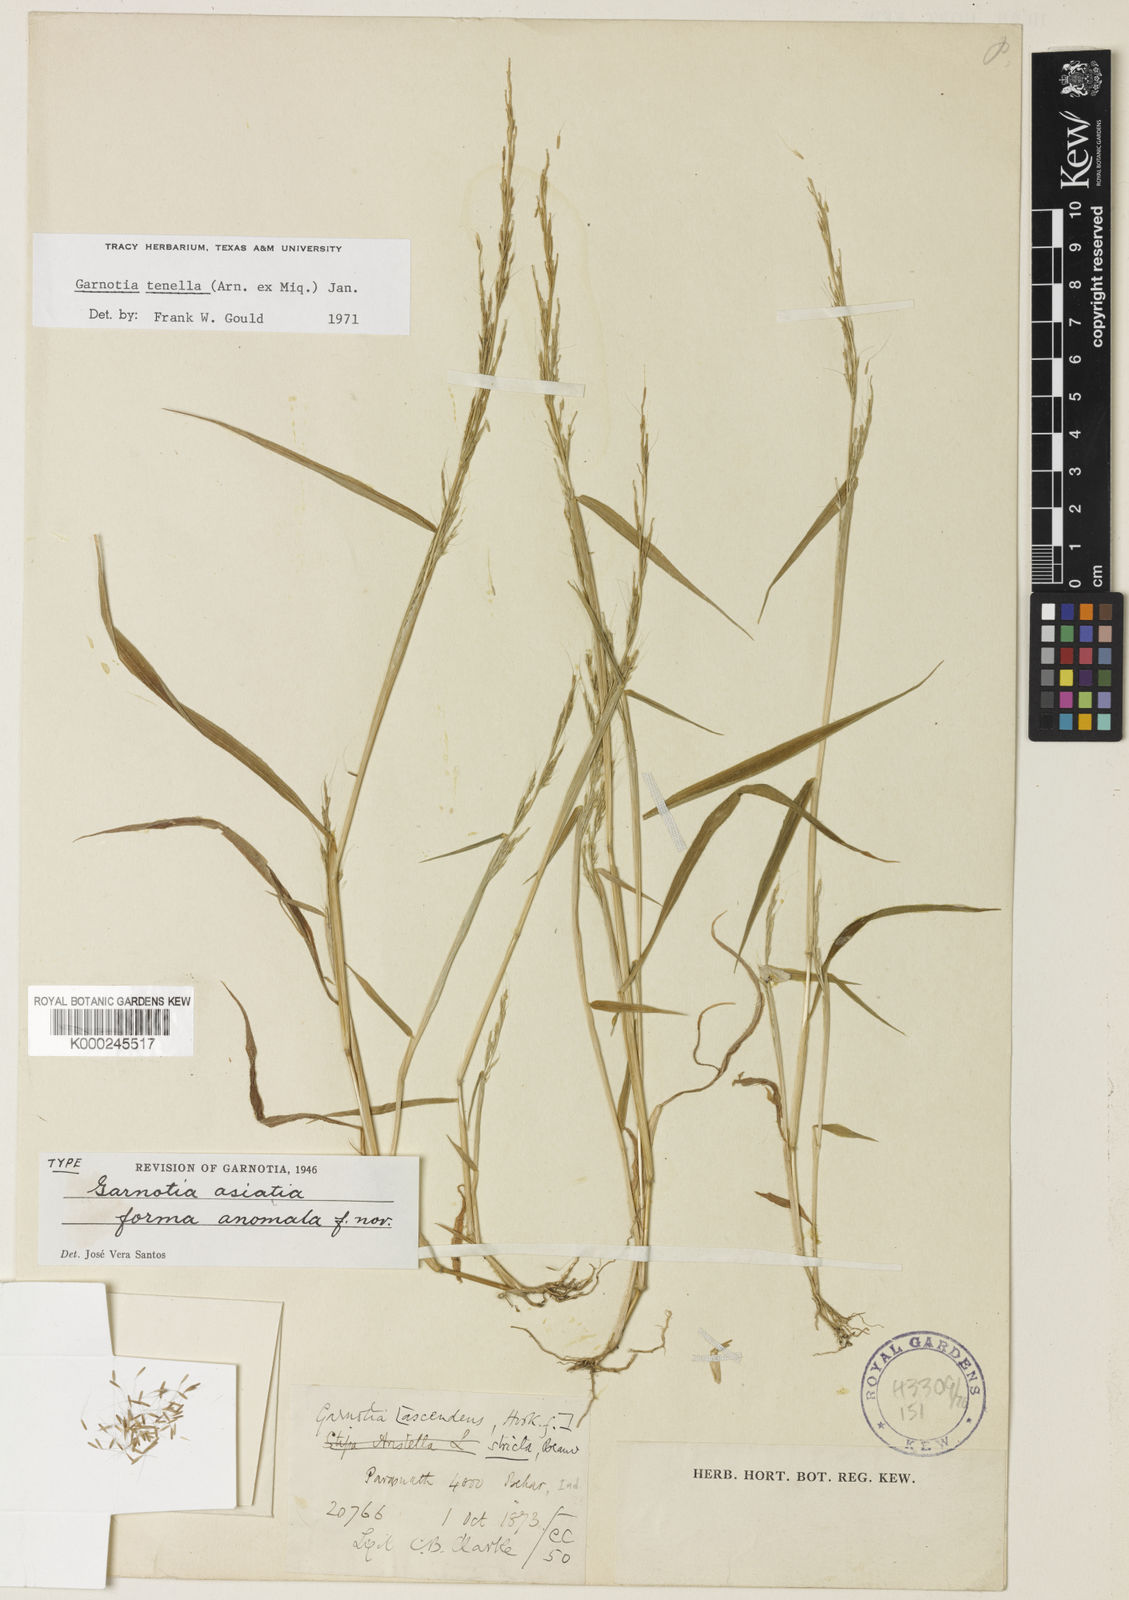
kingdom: Plantae
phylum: Tracheophyta
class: Liliopsida
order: Poales
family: Poaceae
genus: Garnotia
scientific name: Garnotia tenella
